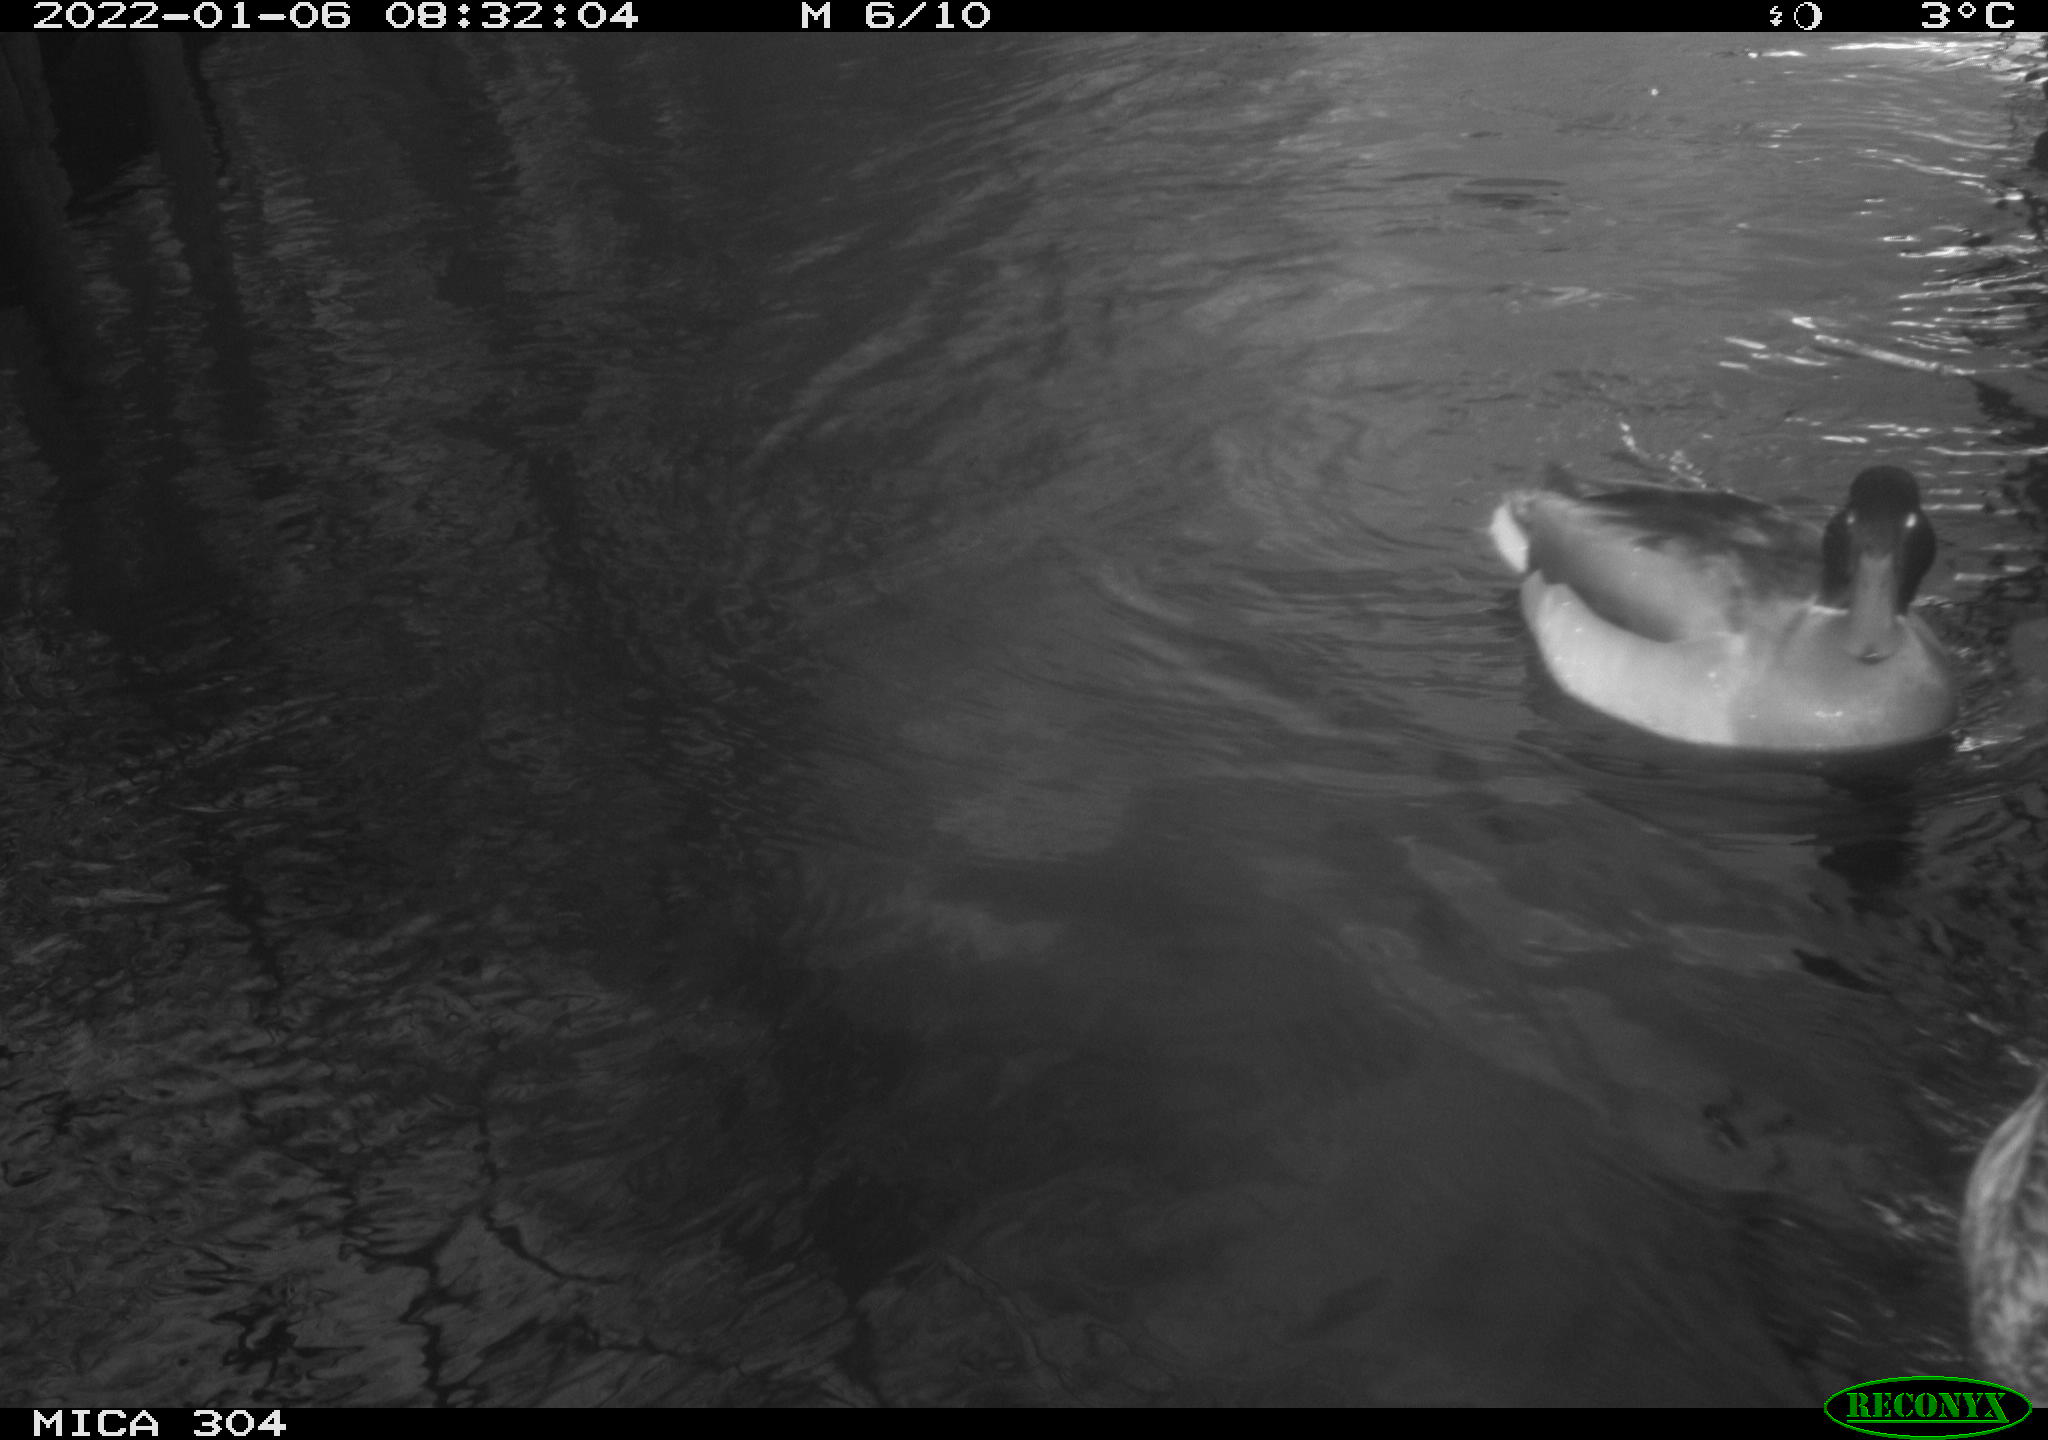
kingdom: Animalia
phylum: Chordata
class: Aves
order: Anseriformes
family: Anatidae
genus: Anas
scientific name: Anas
